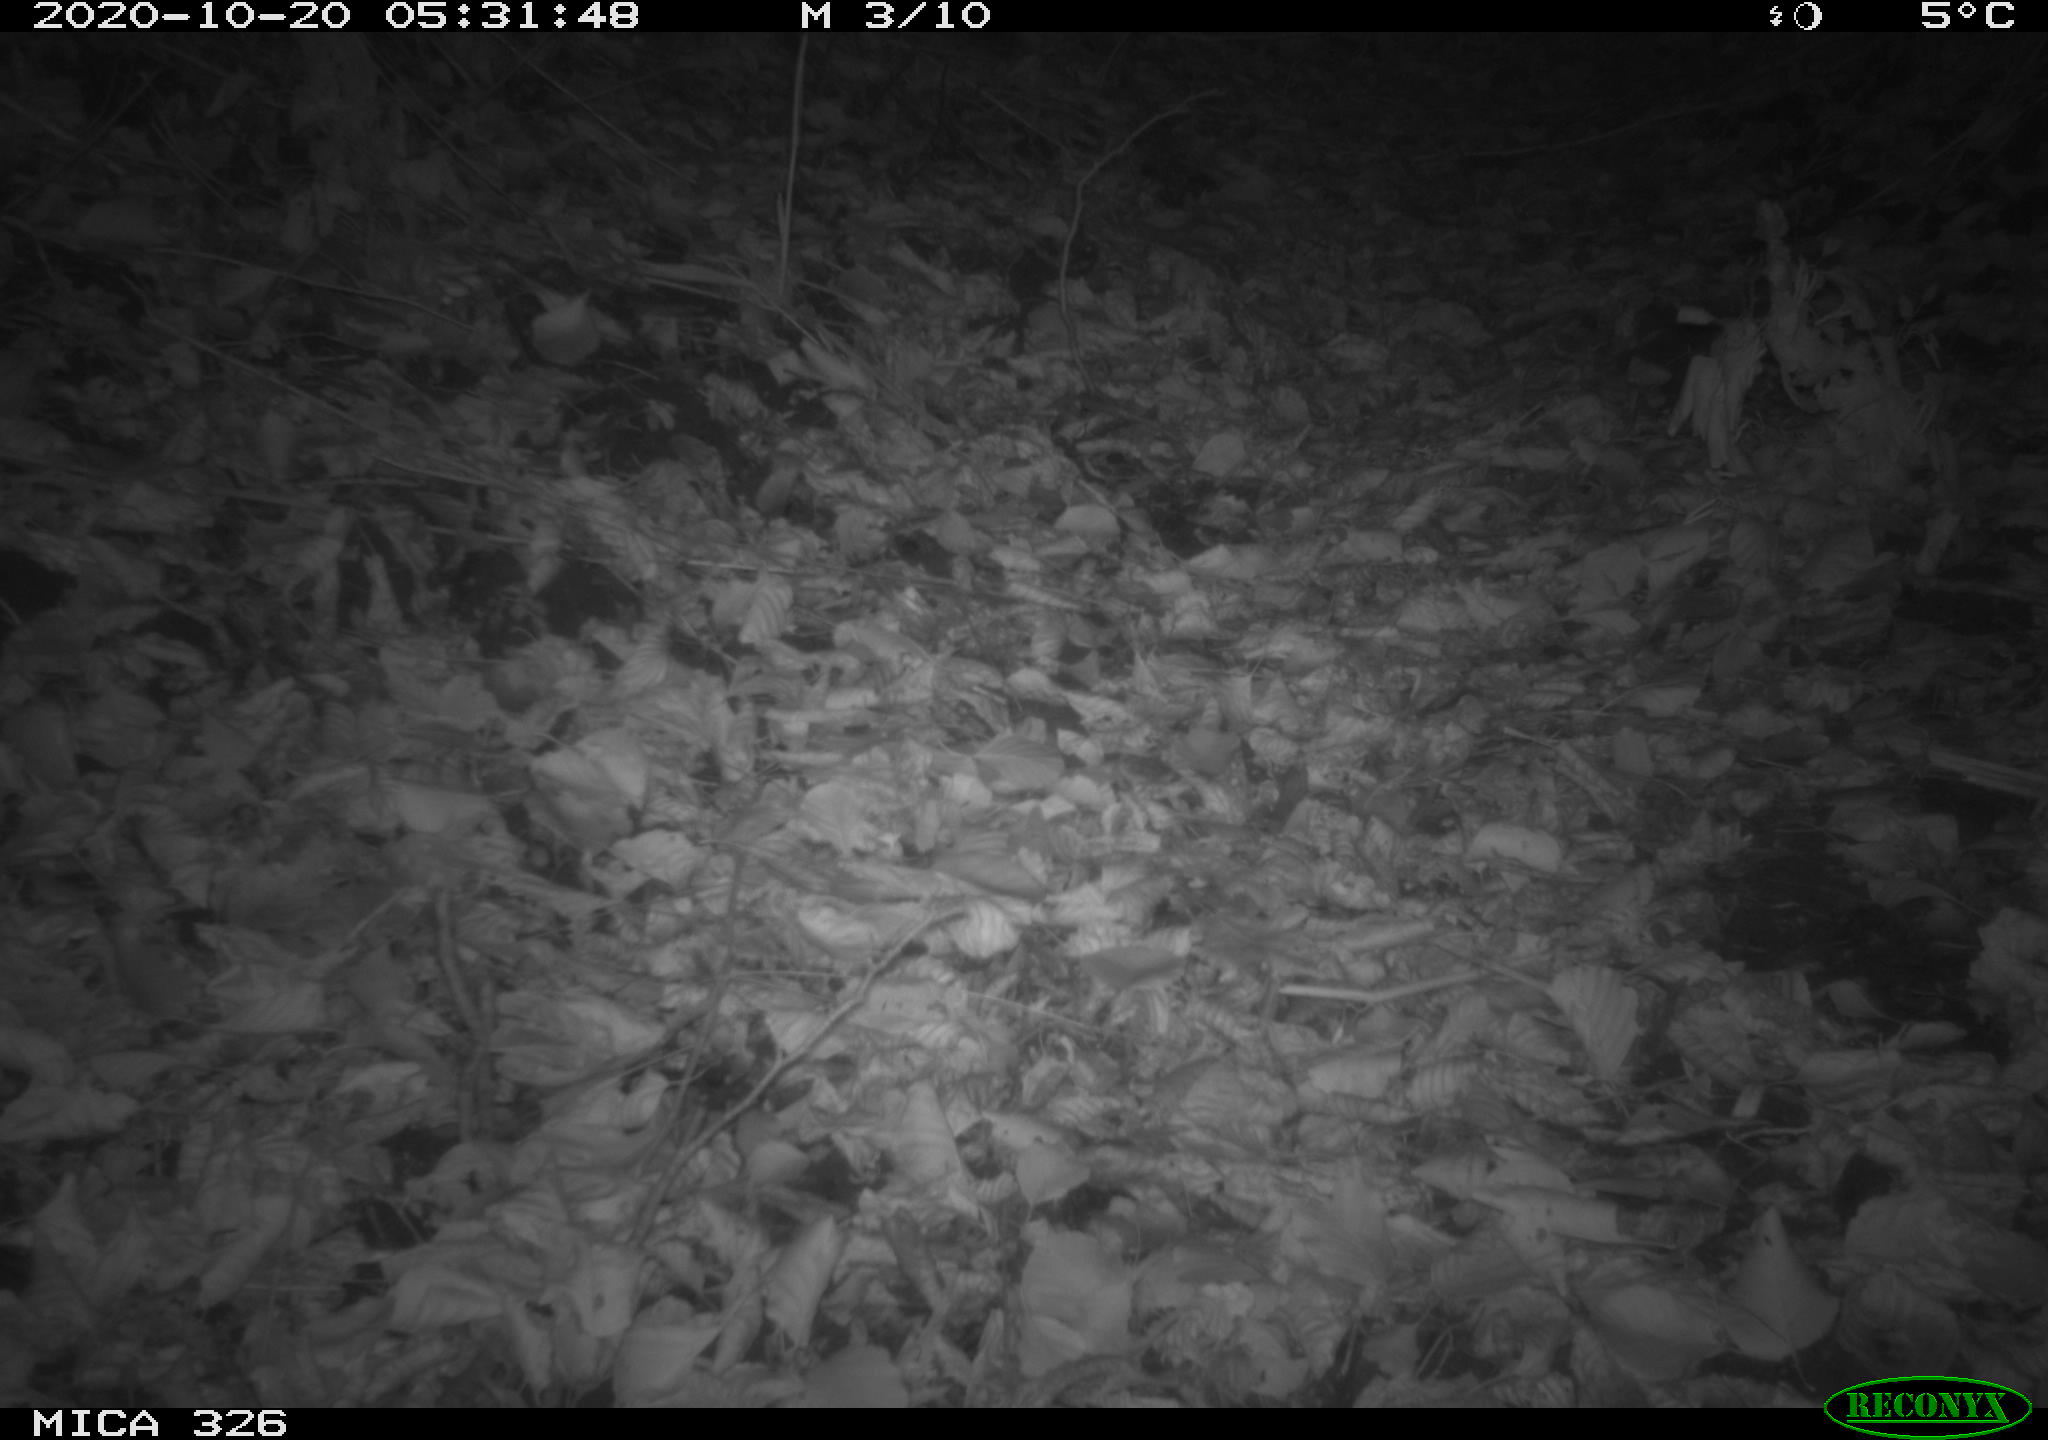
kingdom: Animalia
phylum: Chordata
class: Mammalia
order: Rodentia
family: Muridae
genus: Rattus
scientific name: Rattus norvegicus
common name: Brown rat
